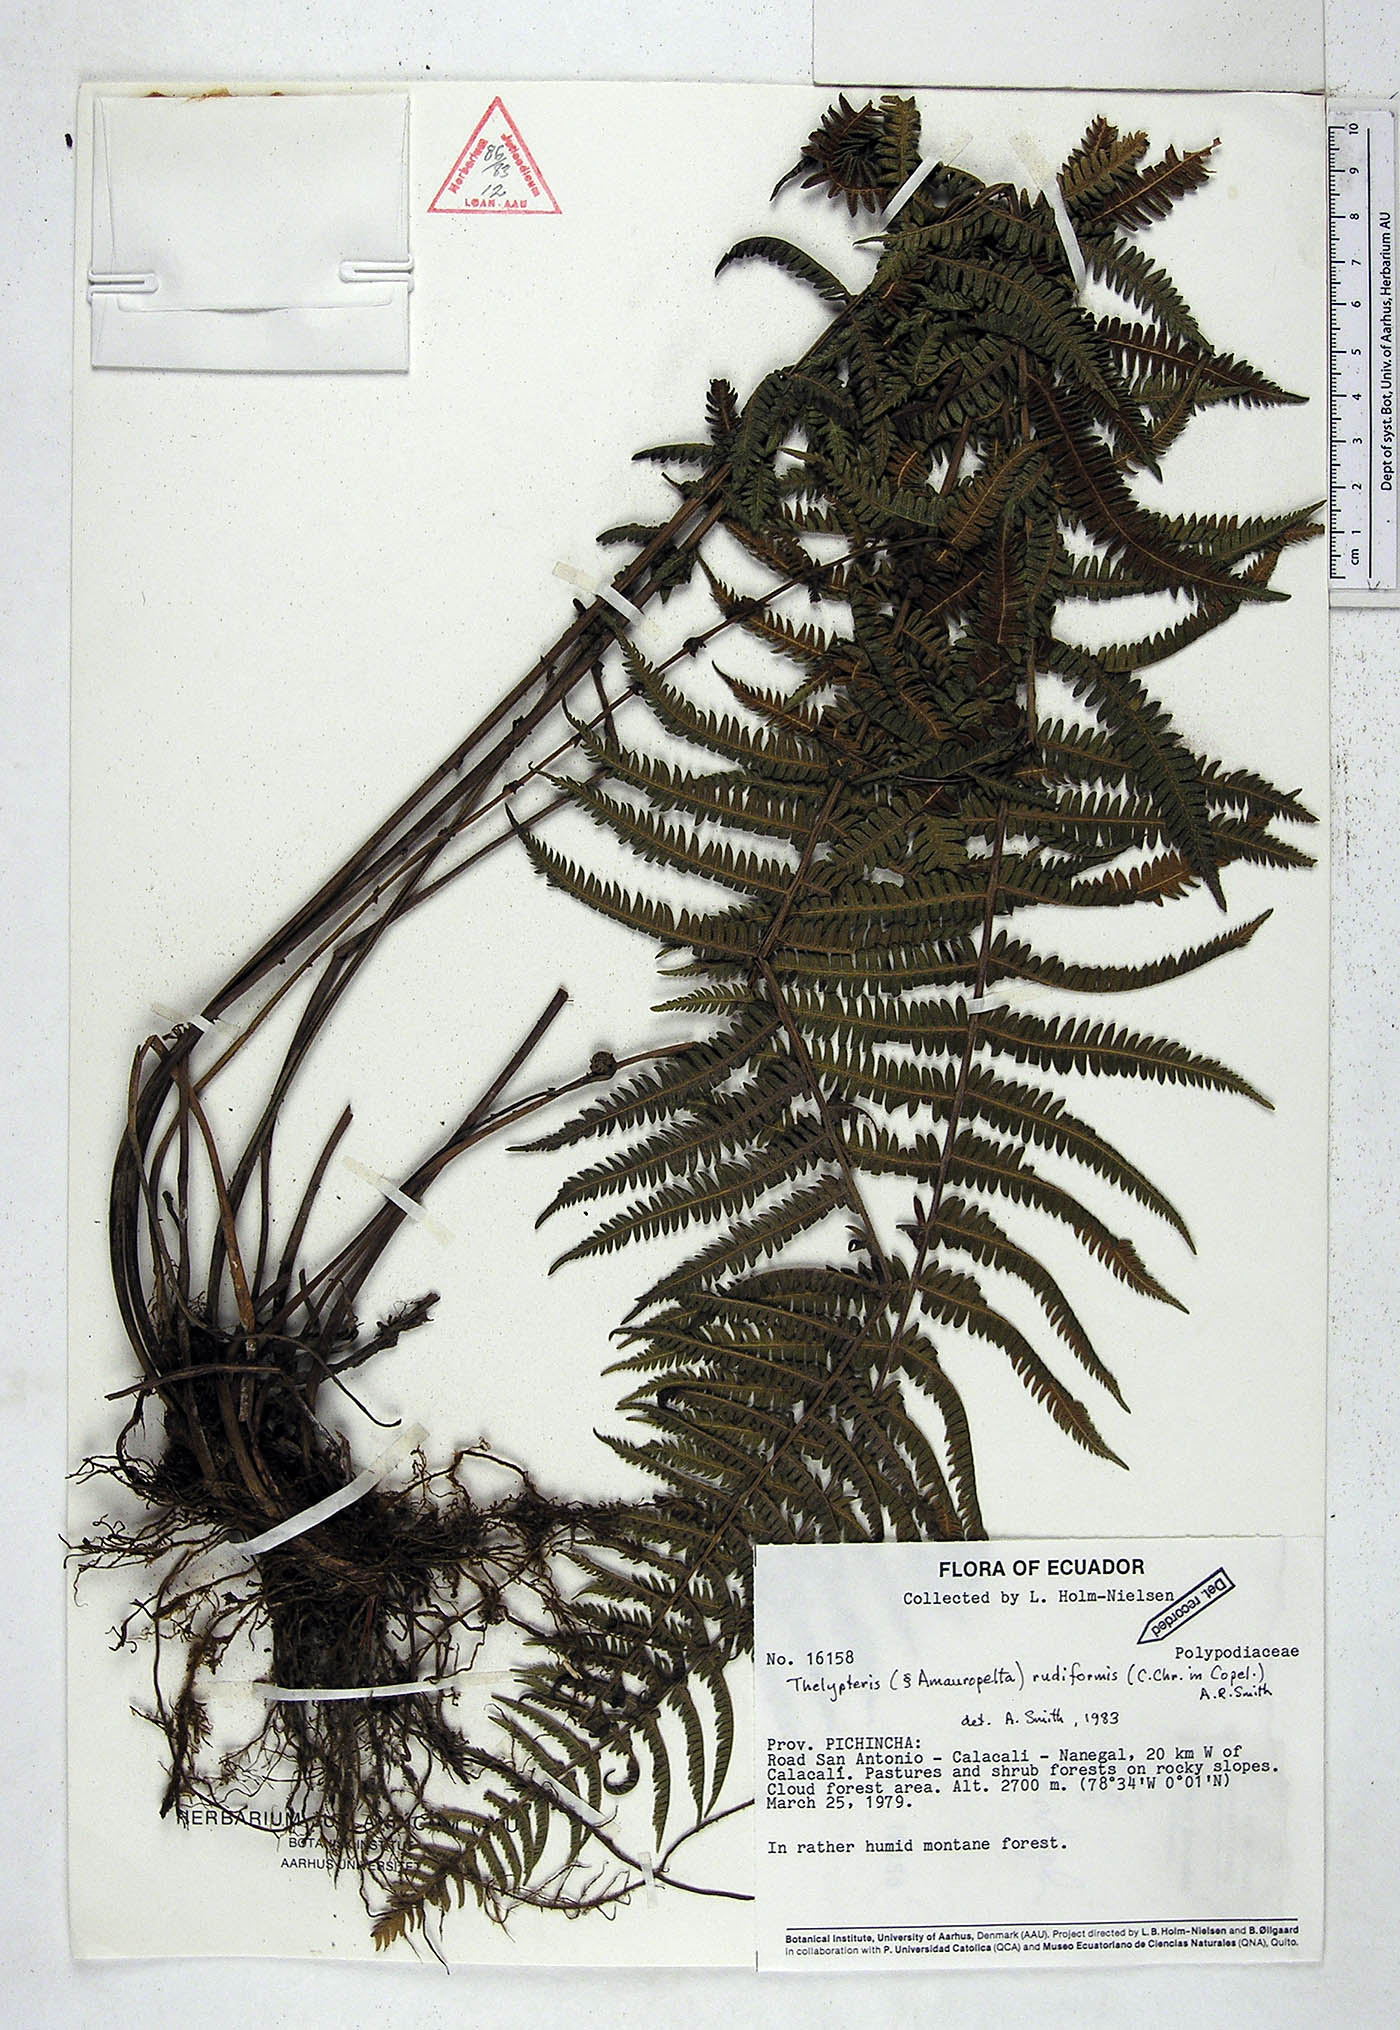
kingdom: Plantae
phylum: Tracheophyta
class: Polypodiopsida
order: Polypodiales
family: Thelypteridaceae
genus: Amauropelta
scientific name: Amauropelta rudiformis
